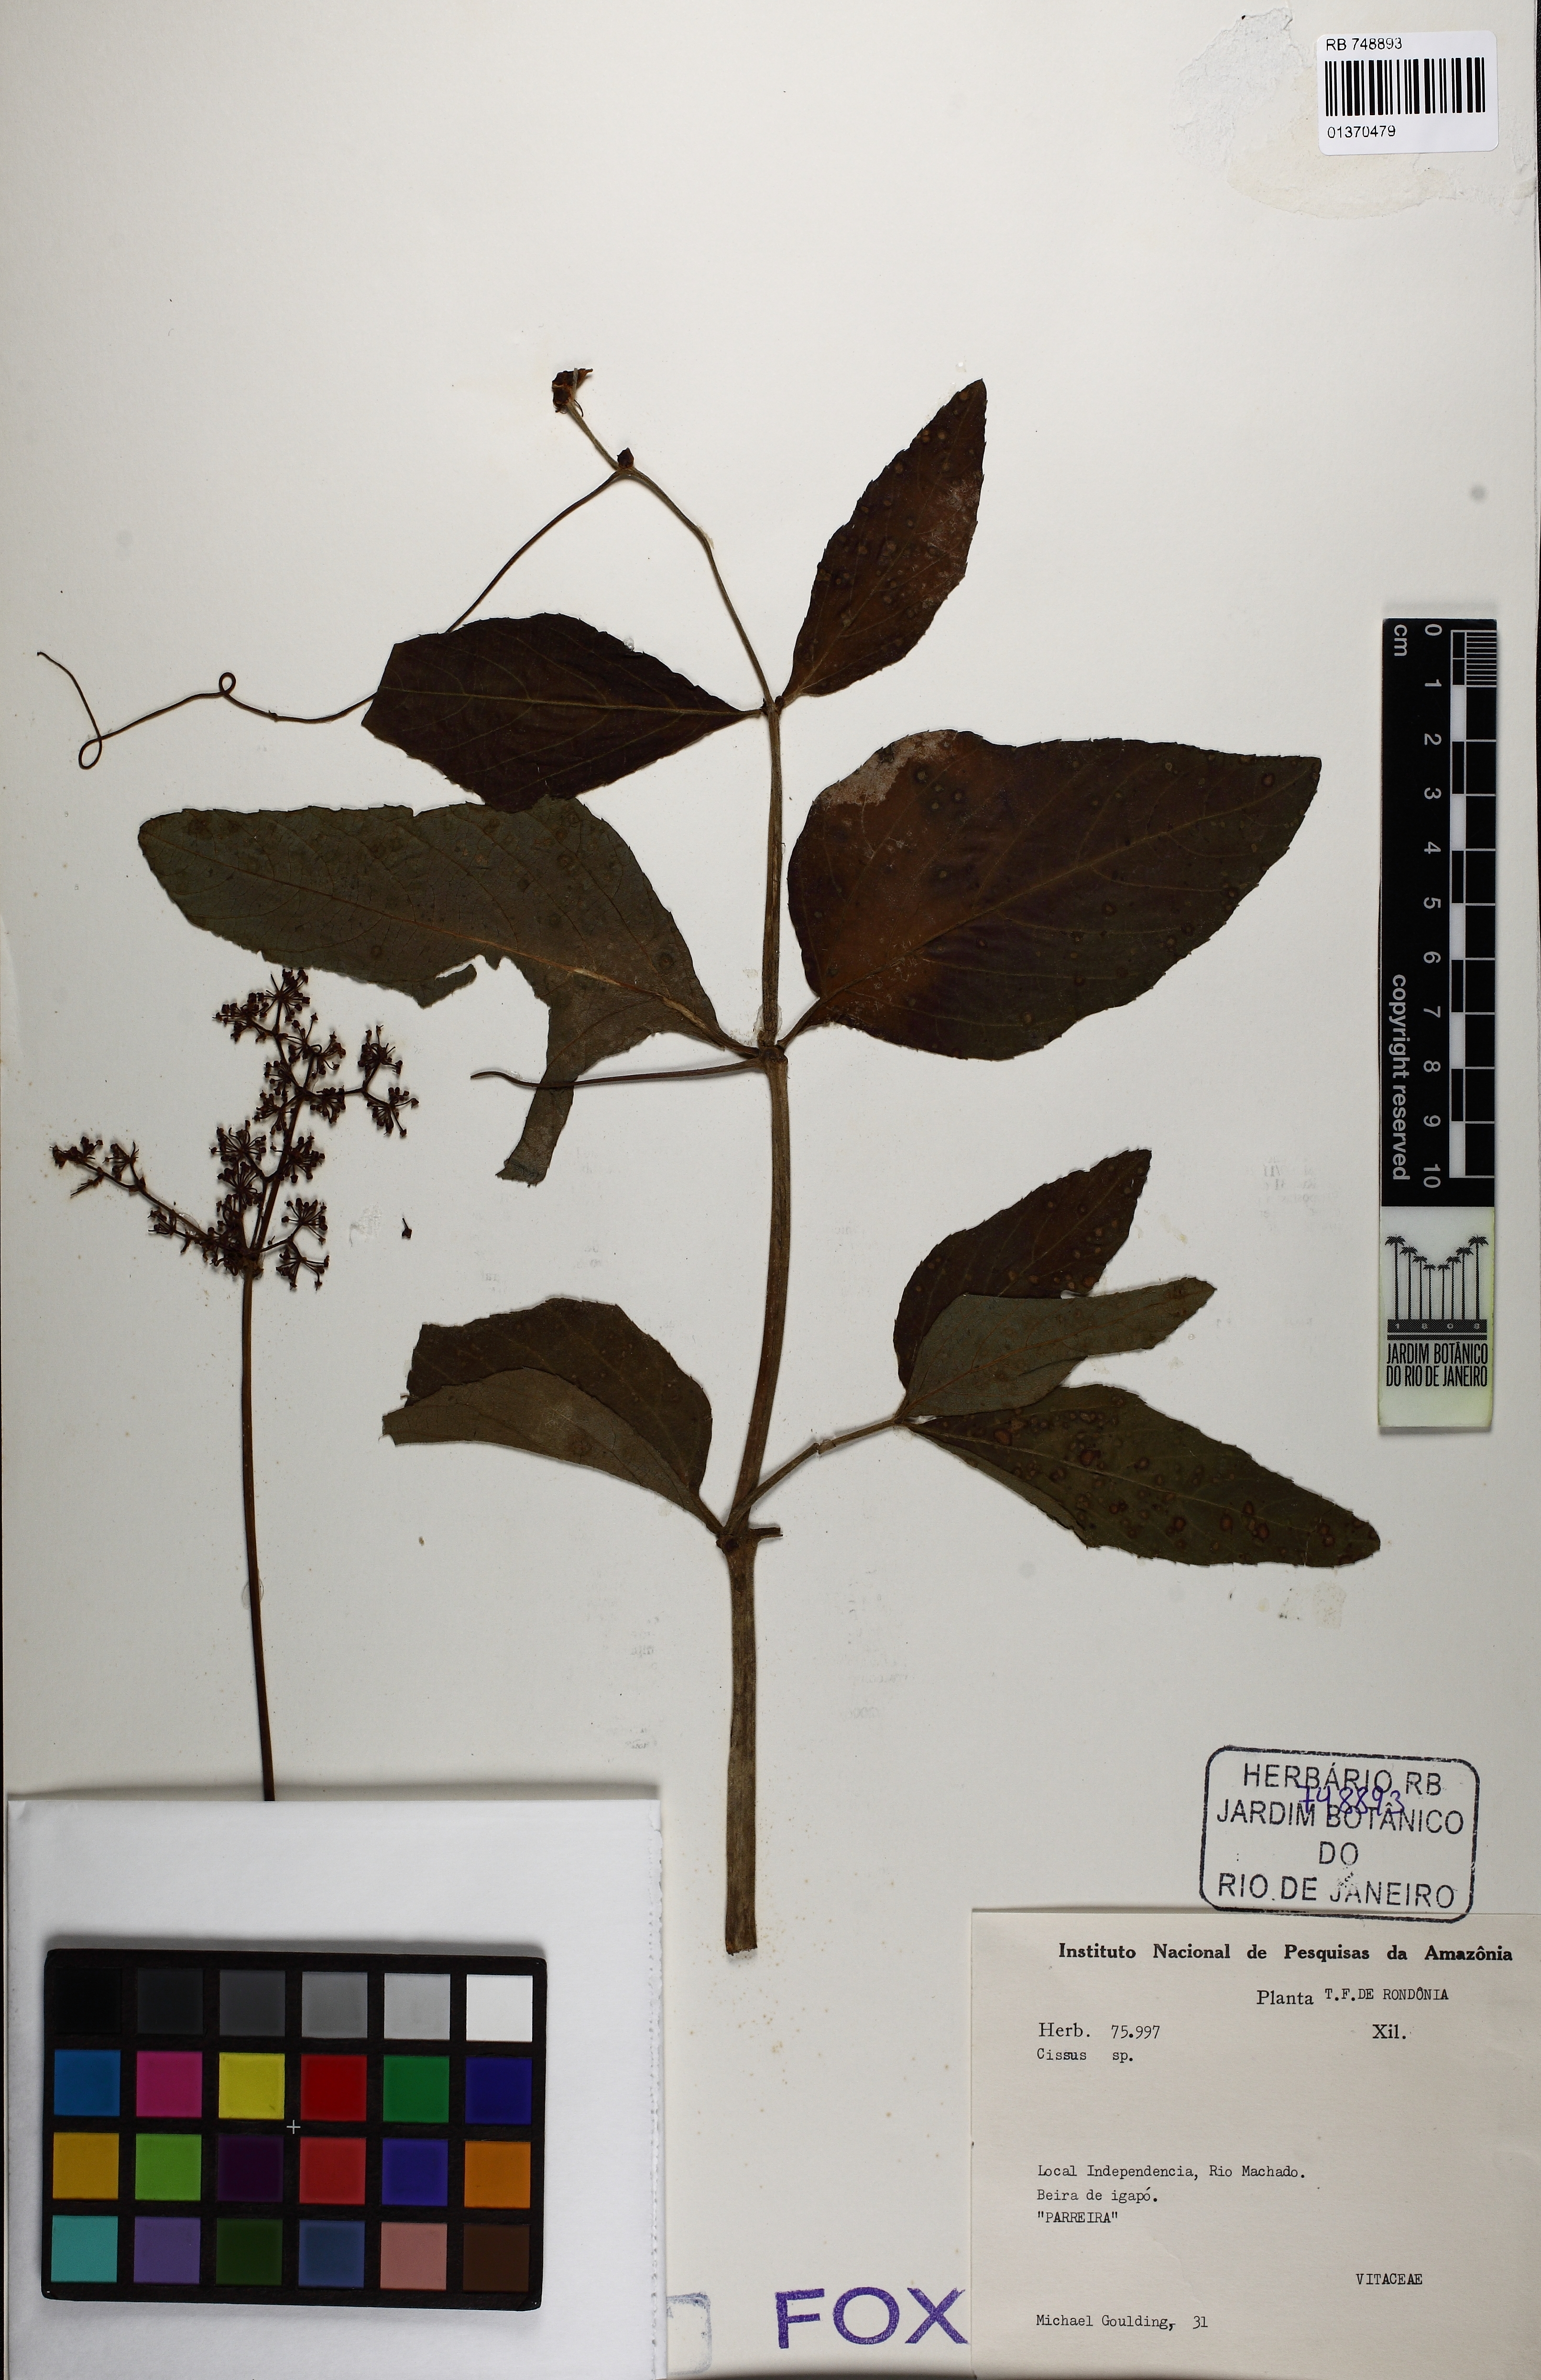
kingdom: Plantae
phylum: Tracheophyta
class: Magnoliopsida
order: Vitales
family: Vitaceae
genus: Cissus
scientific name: Cissus
